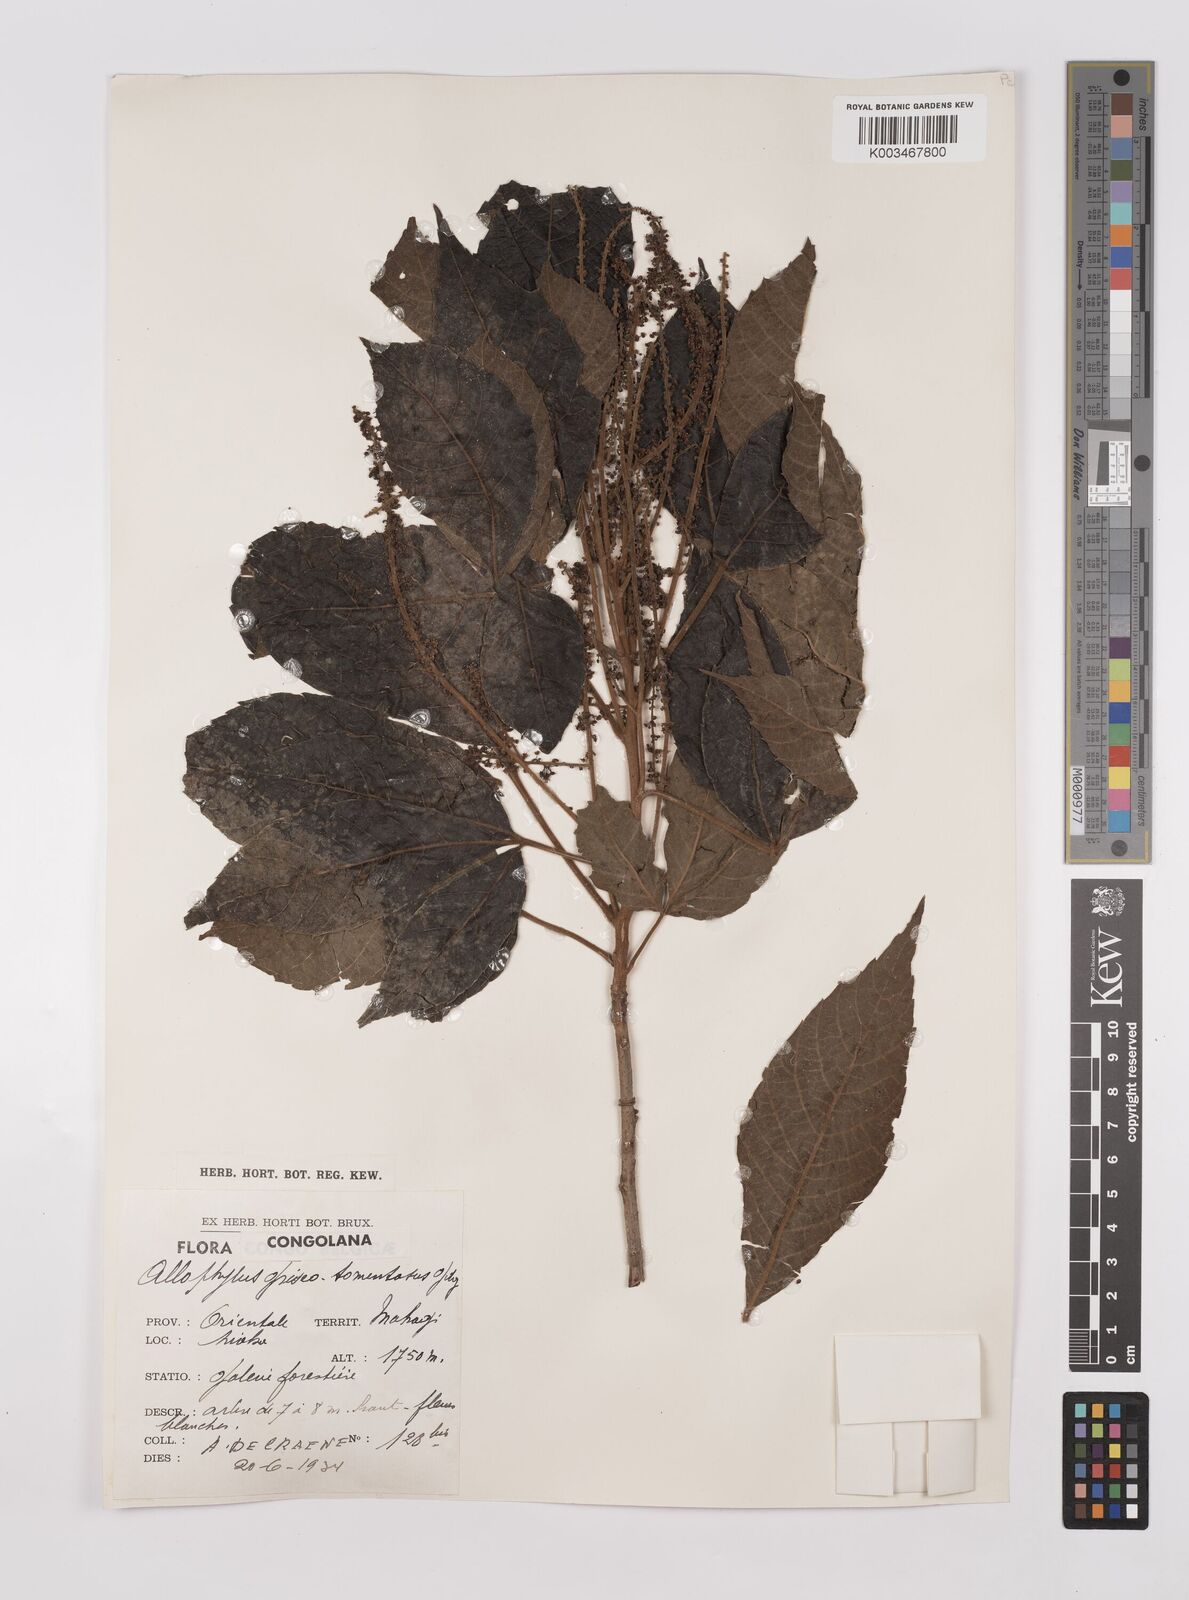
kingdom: Plantae
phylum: Tracheophyta
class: Magnoliopsida
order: Sapindales
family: Sapindaceae
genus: Allophylus
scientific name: Allophylus africanus
